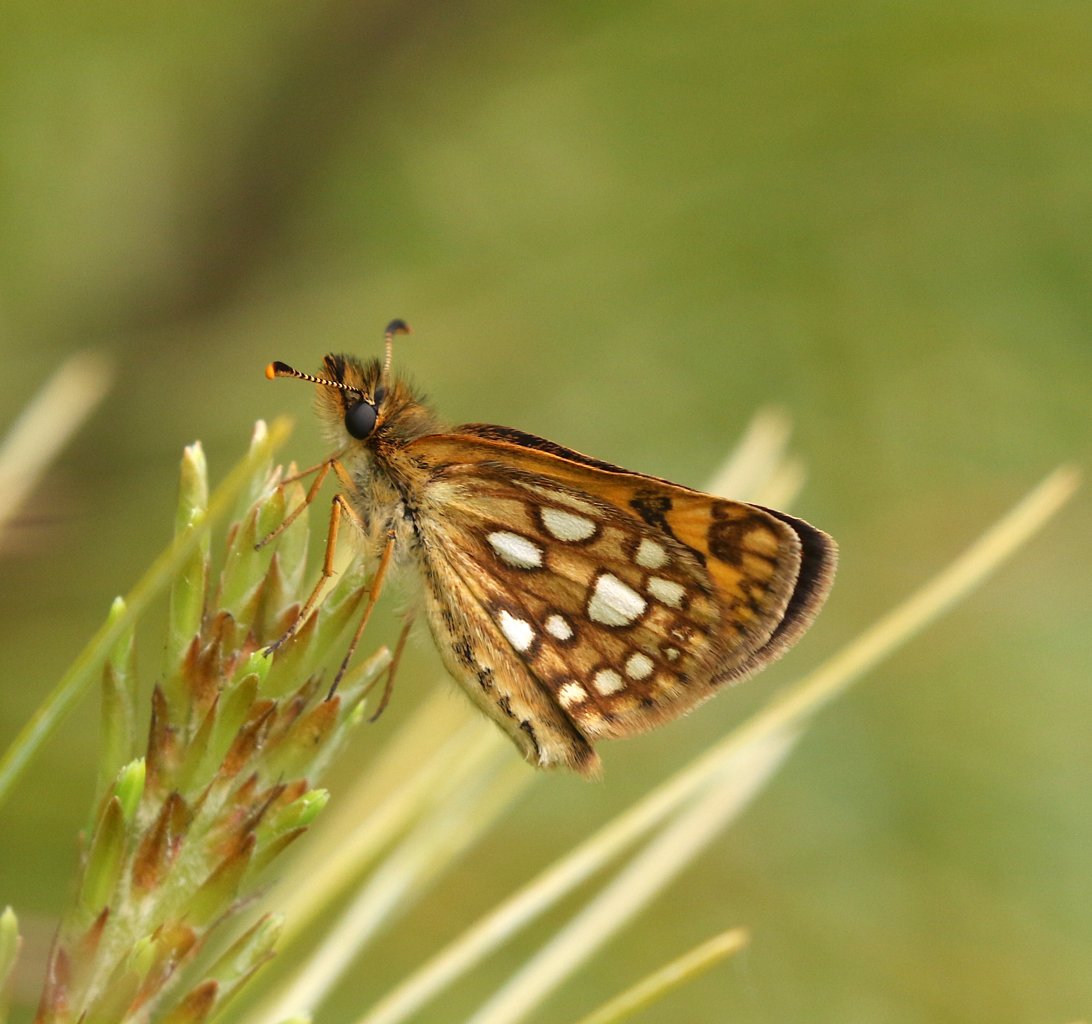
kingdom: Animalia
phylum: Arthropoda
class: Insecta
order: Lepidoptera
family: Hesperiidae
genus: Carterocephalus
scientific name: Carterocephalus palaemon
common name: Chequered Skipper
